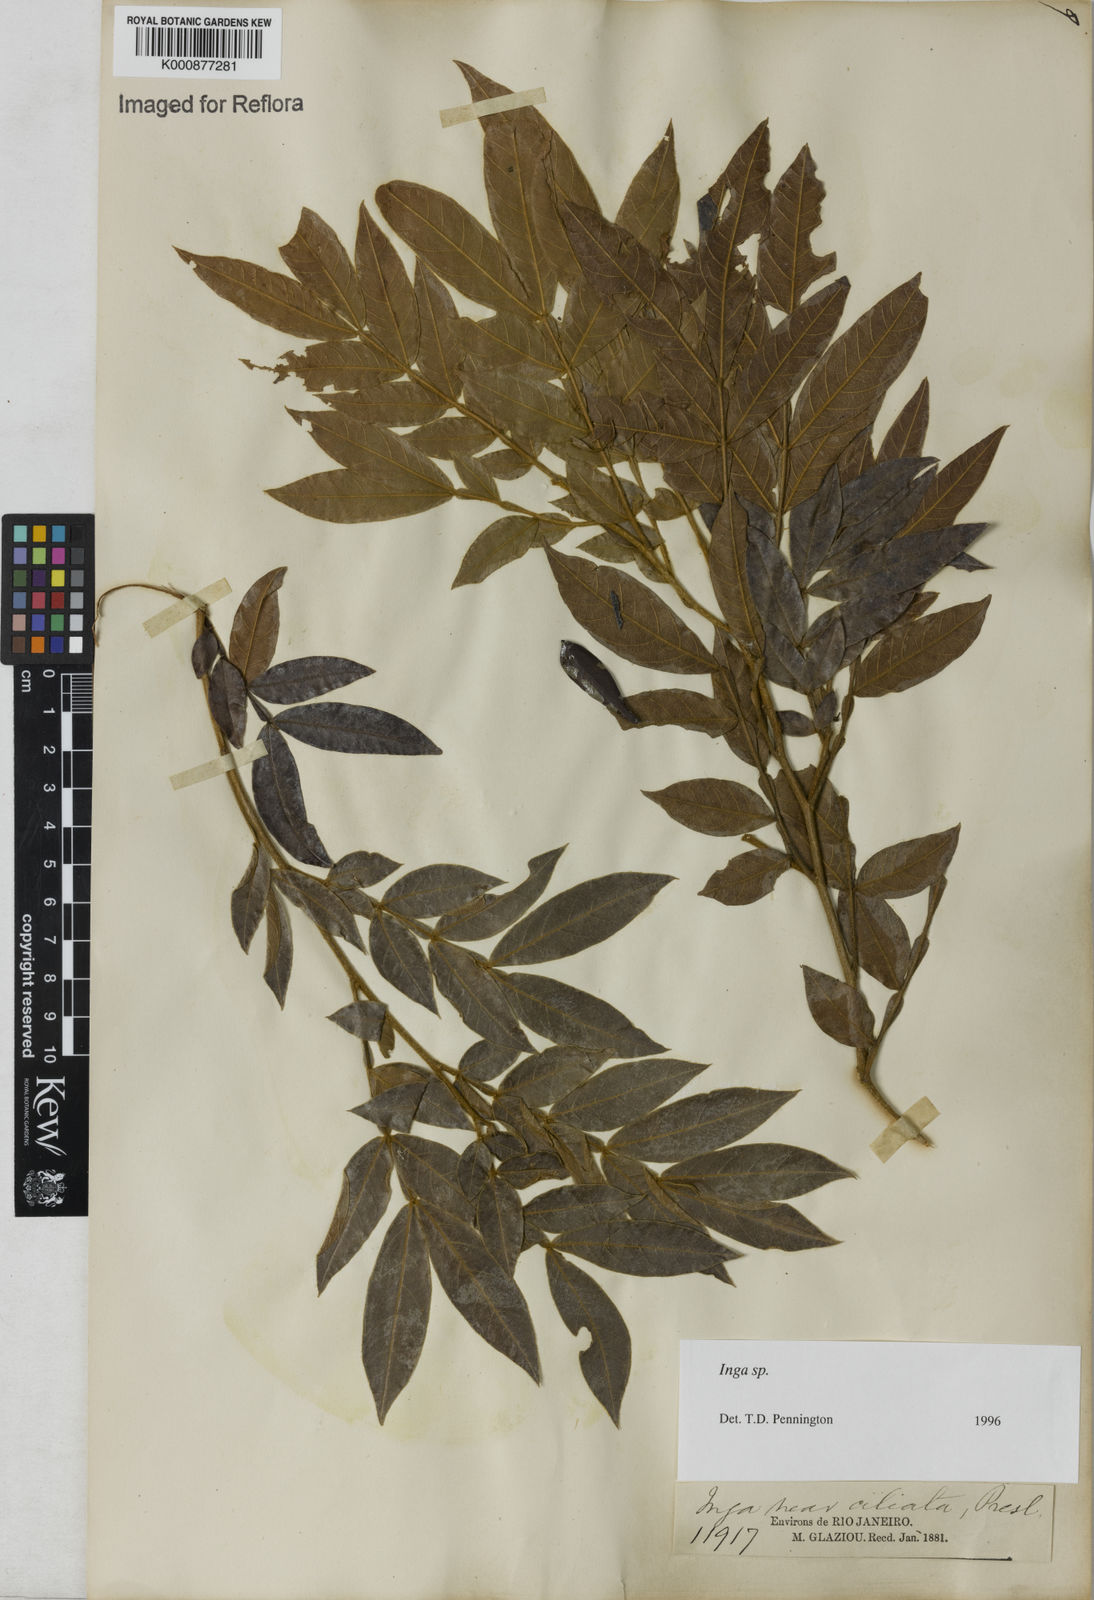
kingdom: Plantae
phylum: Tracheophyta
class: Magnoliopsida
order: Fabales
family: Fabaceae
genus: Inga
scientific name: Inga
